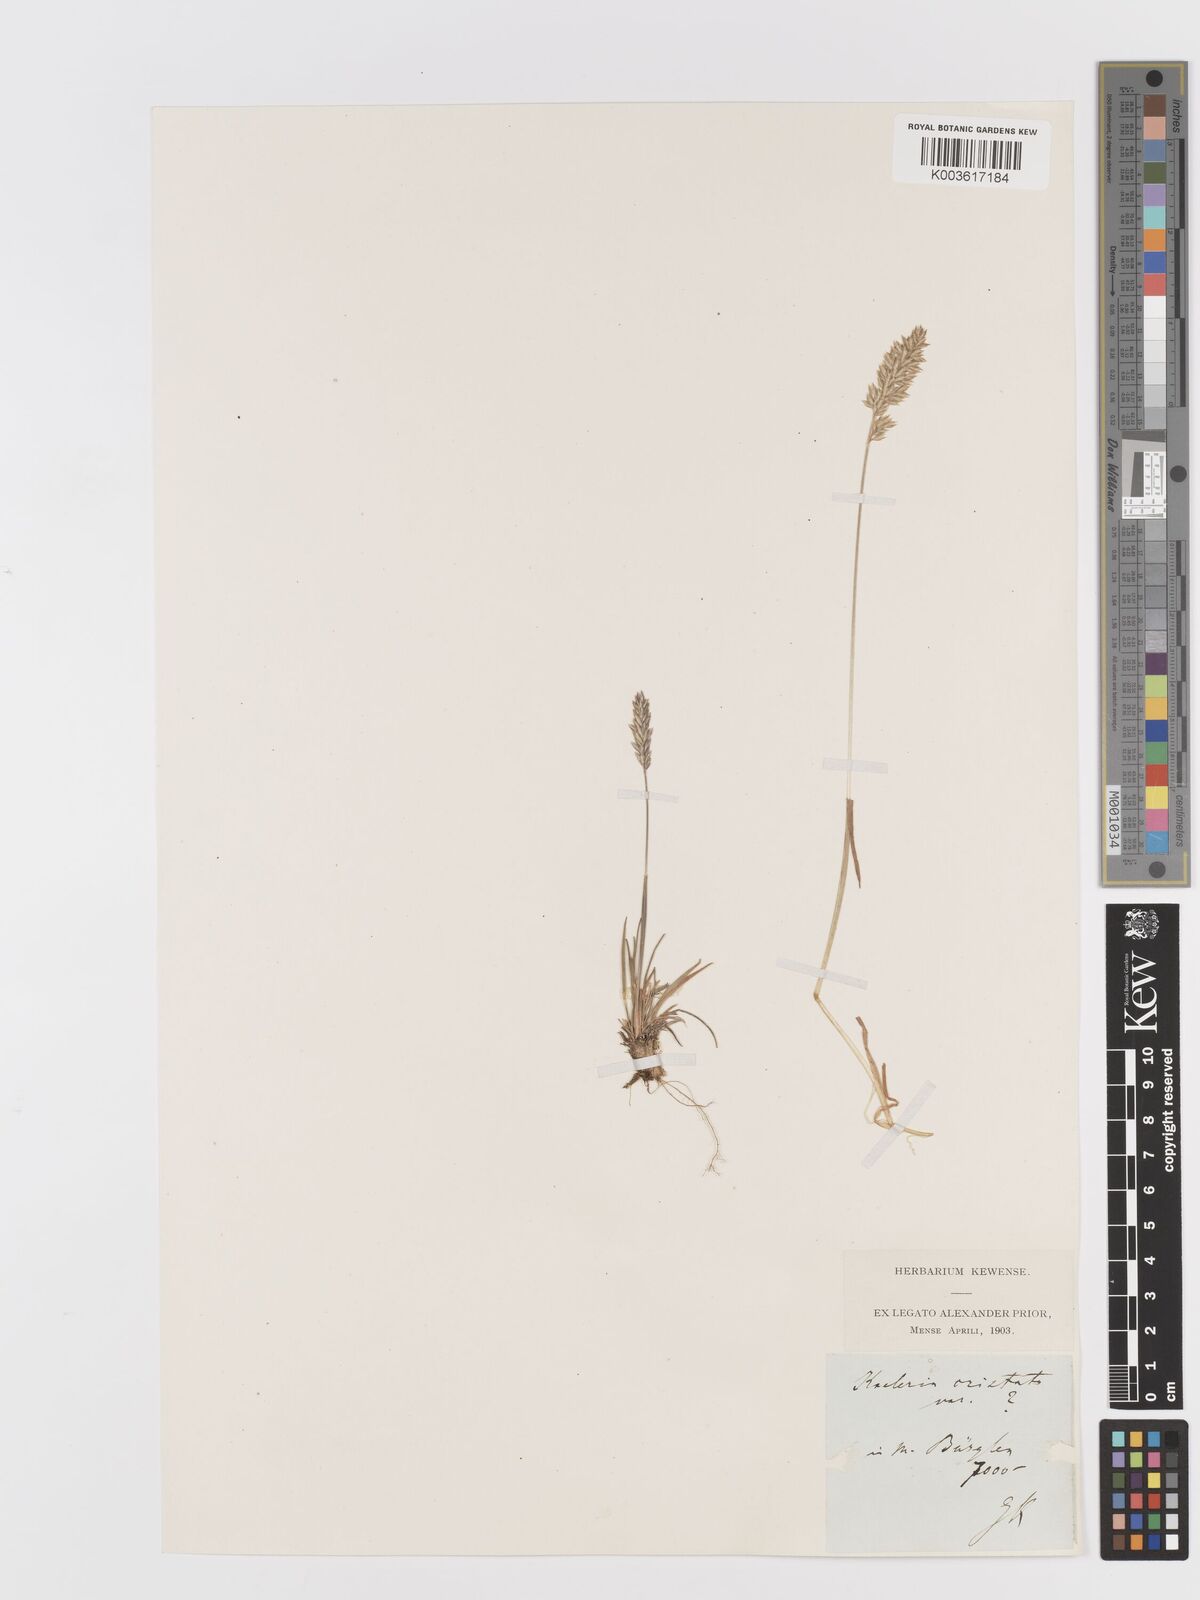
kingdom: Plantae
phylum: Tracheophyta
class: Liliopsida
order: Poales
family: Poaceae
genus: Koeleria
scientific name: Koeleria
